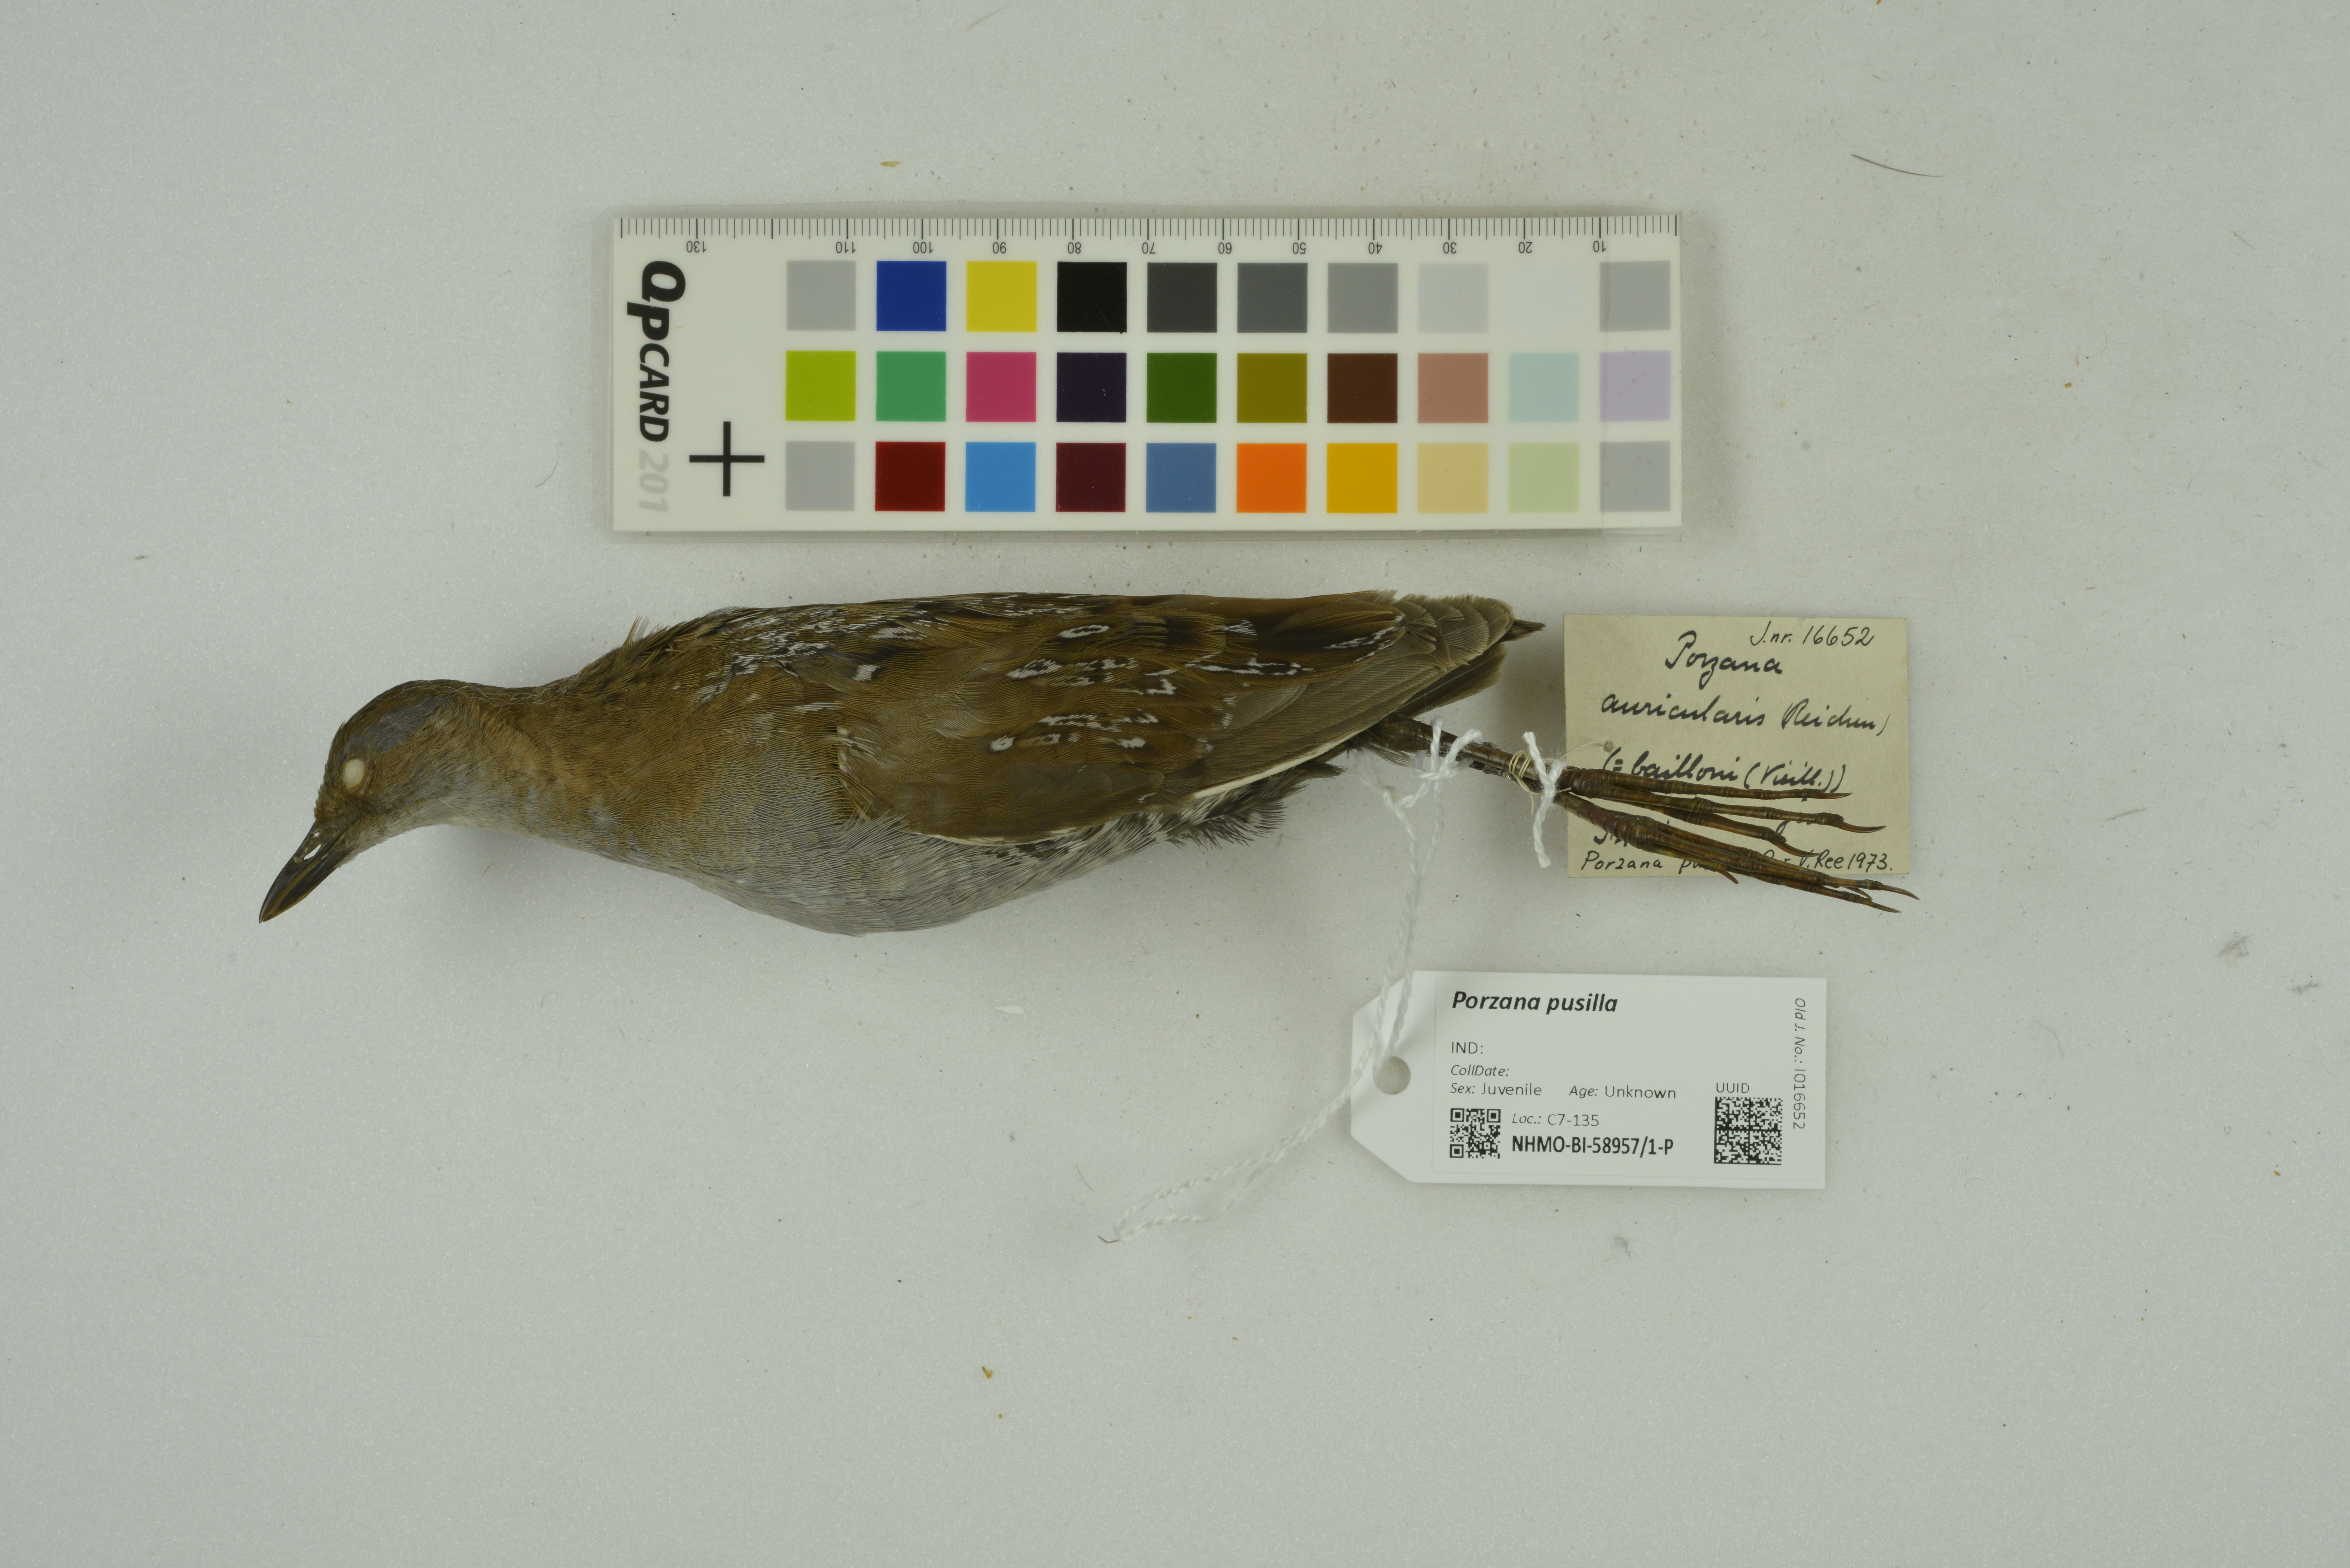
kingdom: Animalia
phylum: Chordata
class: Aves
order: Gruiformes
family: Rallidae
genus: Porzana
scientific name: Porzana pusilla
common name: Baillon's crake
